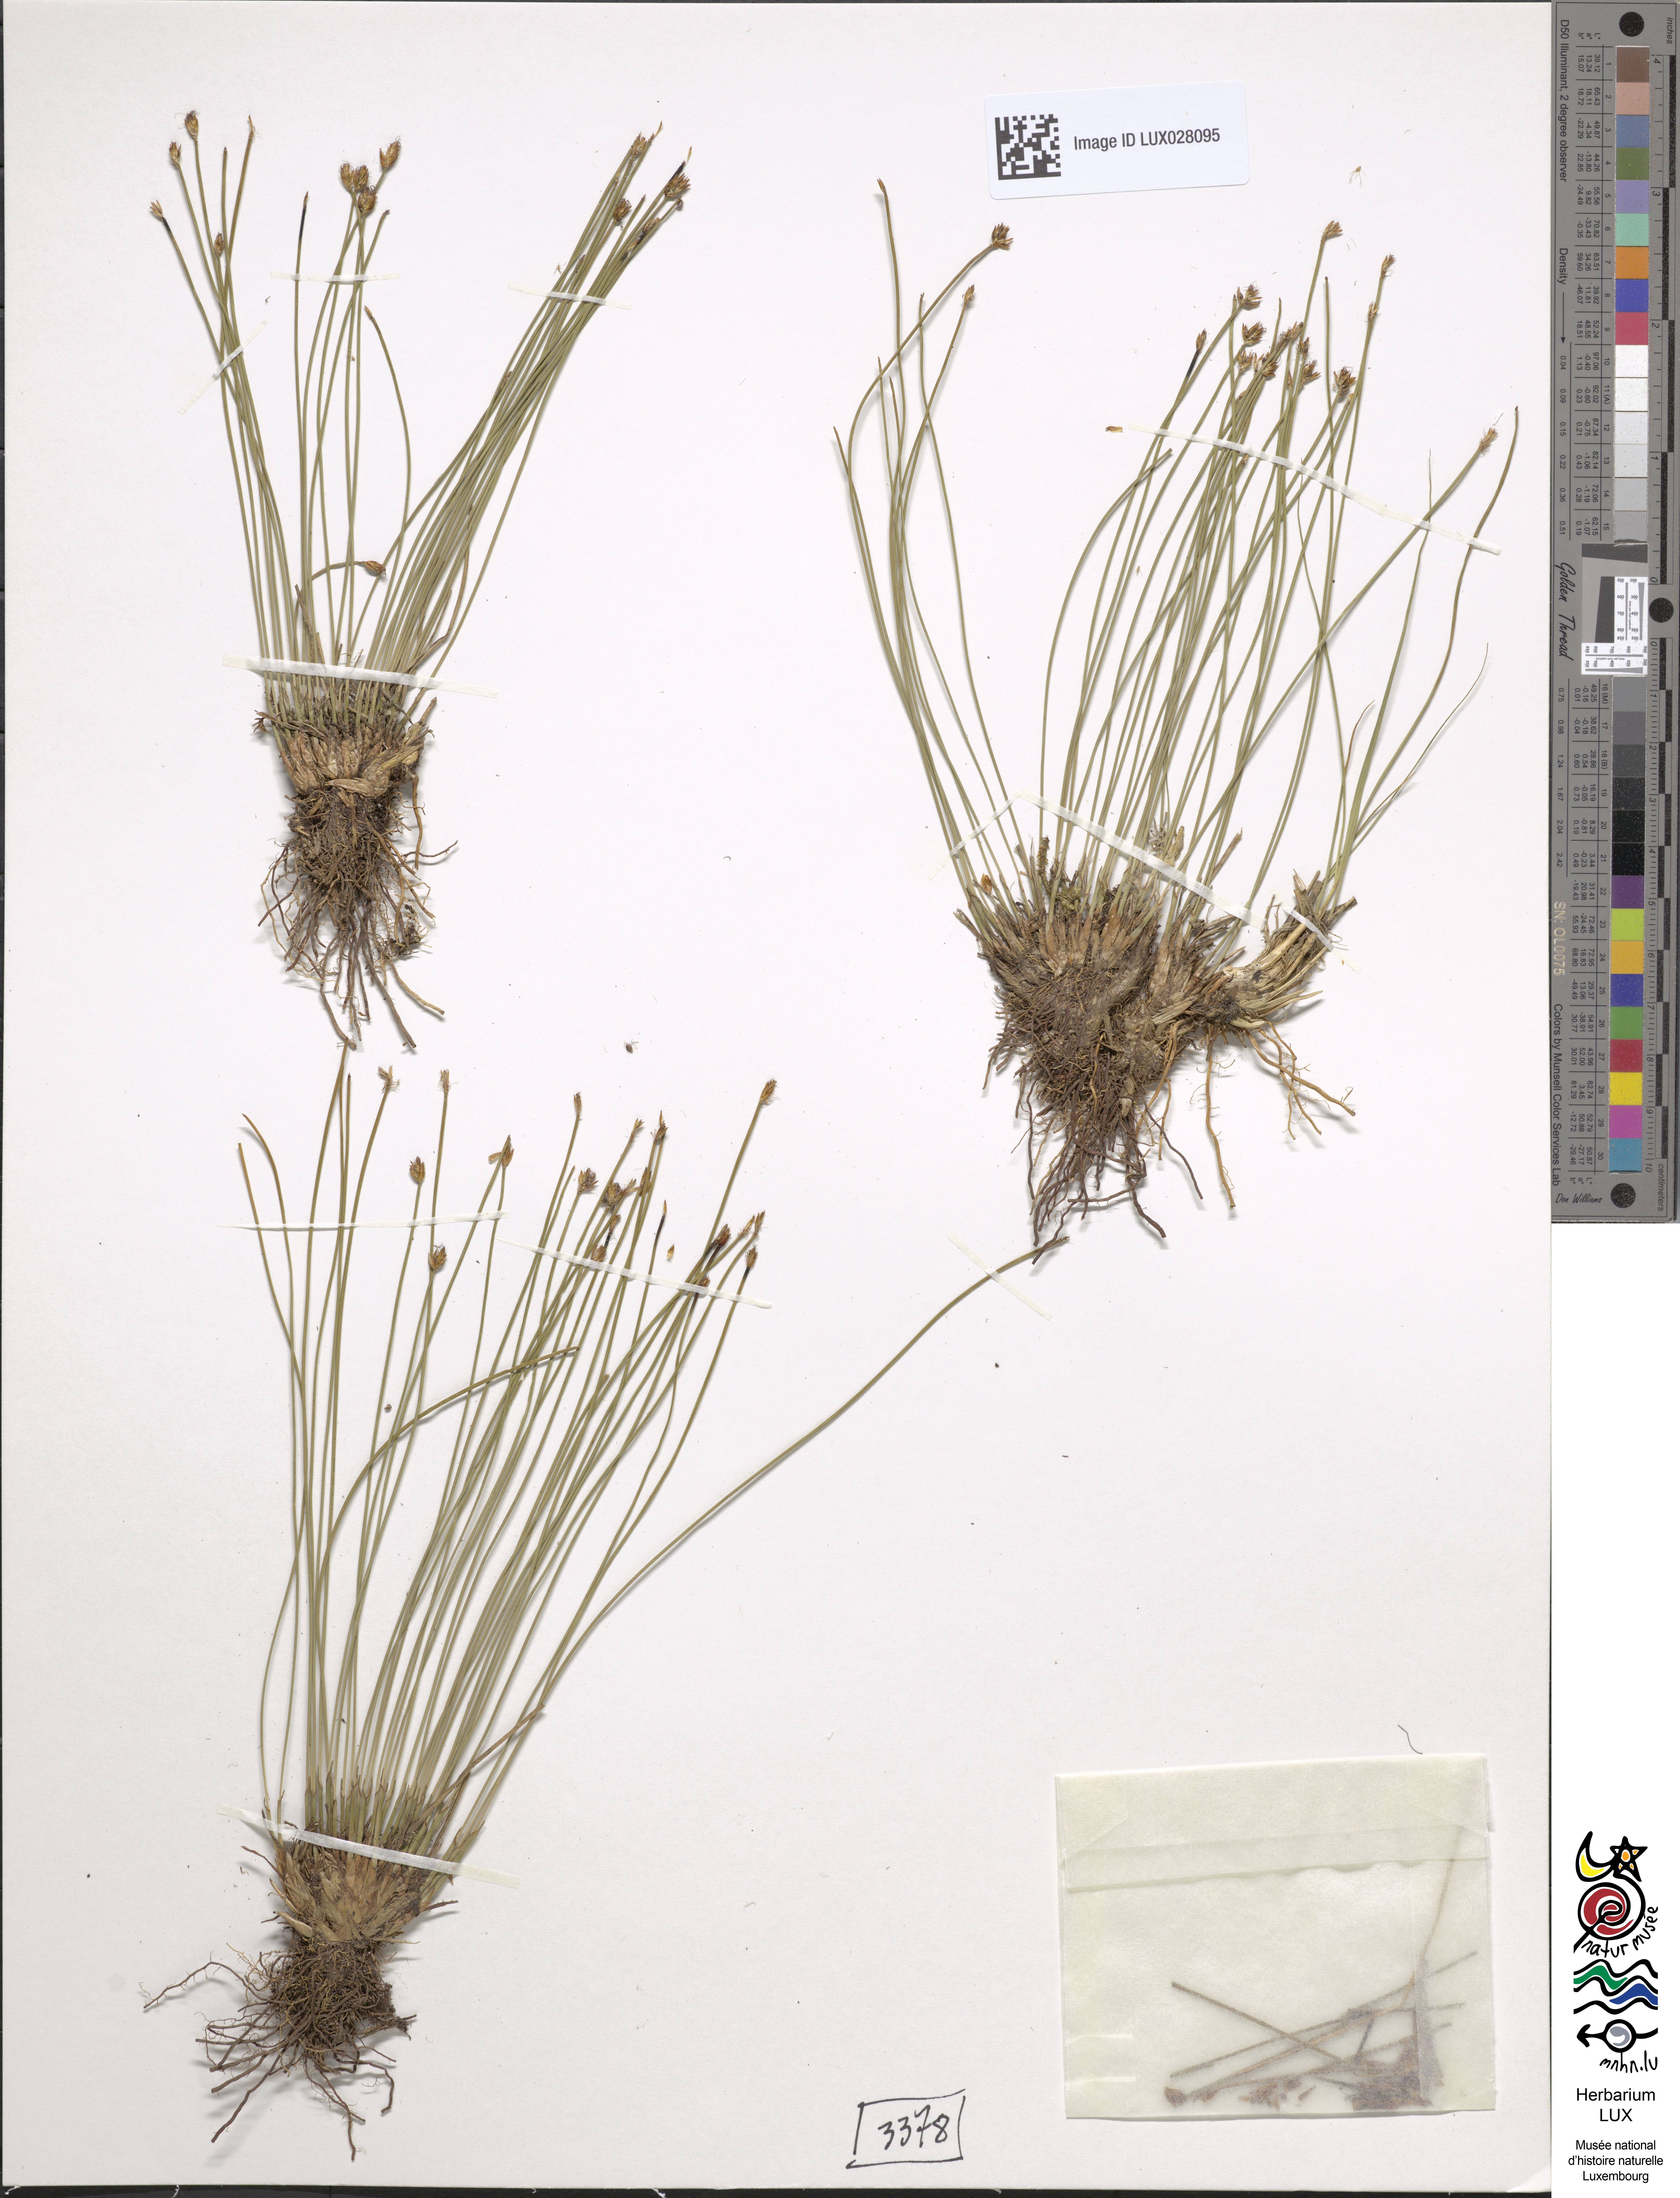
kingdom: Plantae
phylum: Tracheophyta
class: Liliopsida
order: Poales
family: Cyperaceae
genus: Trichophorum
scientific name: Trichophorum cespitosum
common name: Cespitose bulrush
